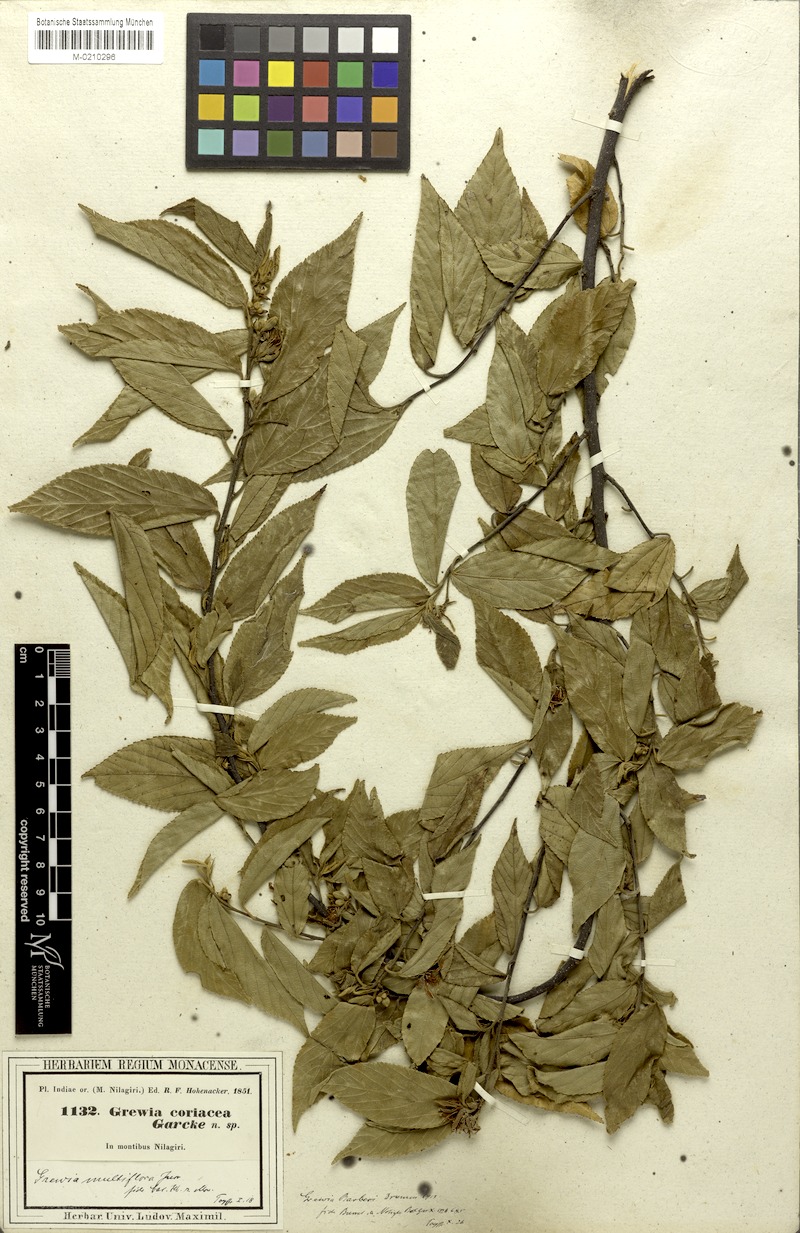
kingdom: Plantae
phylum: Tracheophyta
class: Magnoliopsida
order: Malvales
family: Malvaceae
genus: Grewia
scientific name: Grewia serrulata
